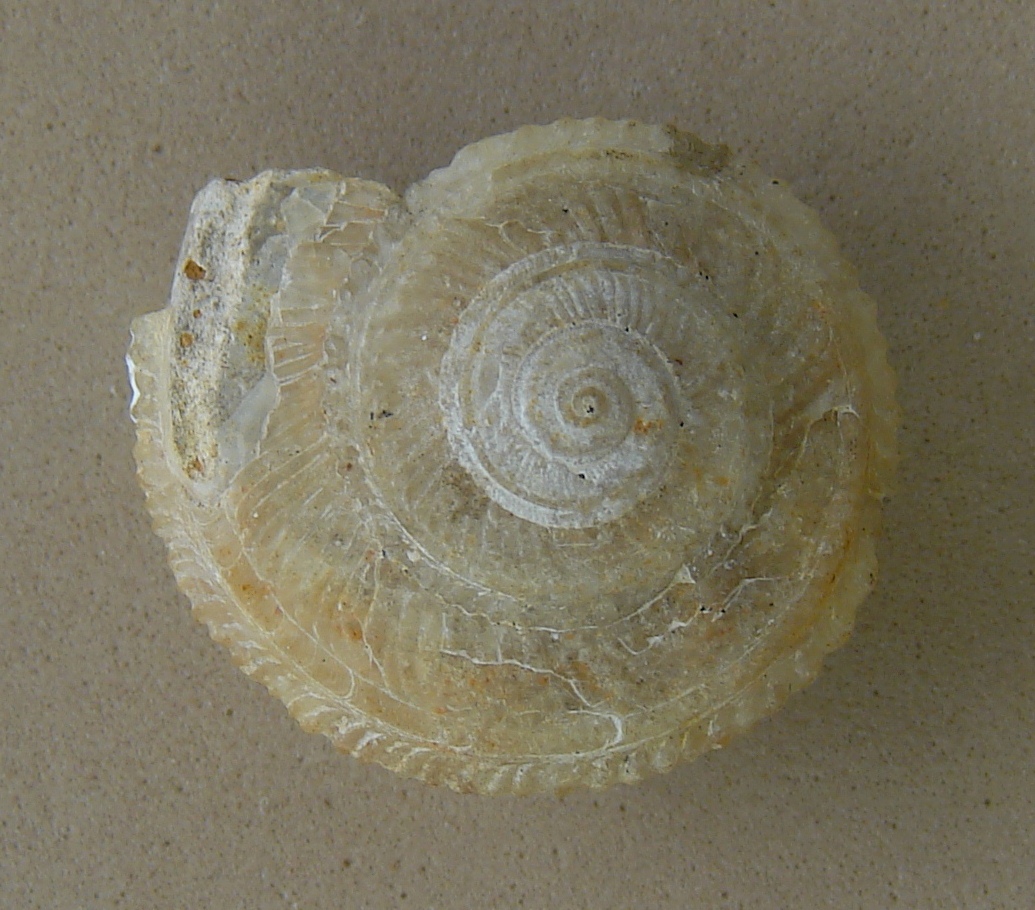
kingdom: Animalia
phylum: Mollusca
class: Gastropoda
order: Pleurotomariida
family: Pleurotomariidae
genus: Szabotomaria
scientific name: Szabotomaria subornata
